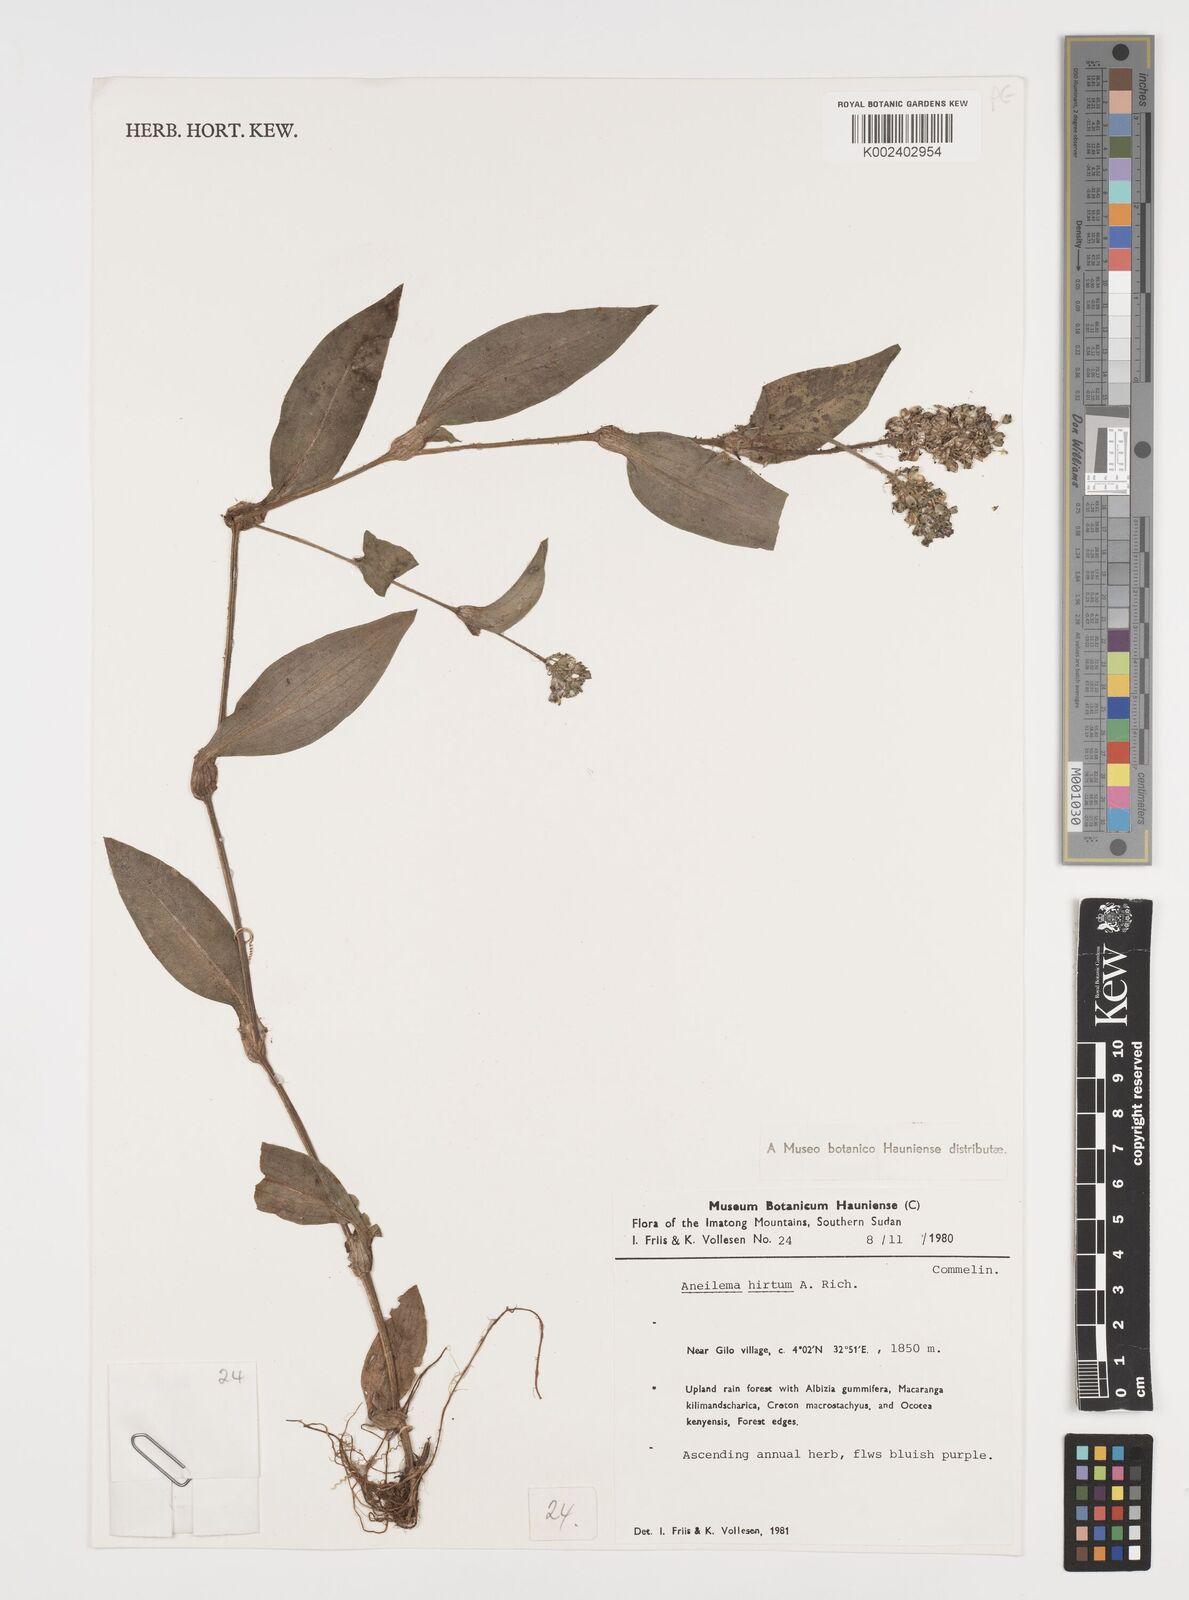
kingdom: Plantae
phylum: Tracheophyta
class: Liliopsida
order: Commelinales
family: Commelinaceae
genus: Aneilema
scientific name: Aneilema hirtum
